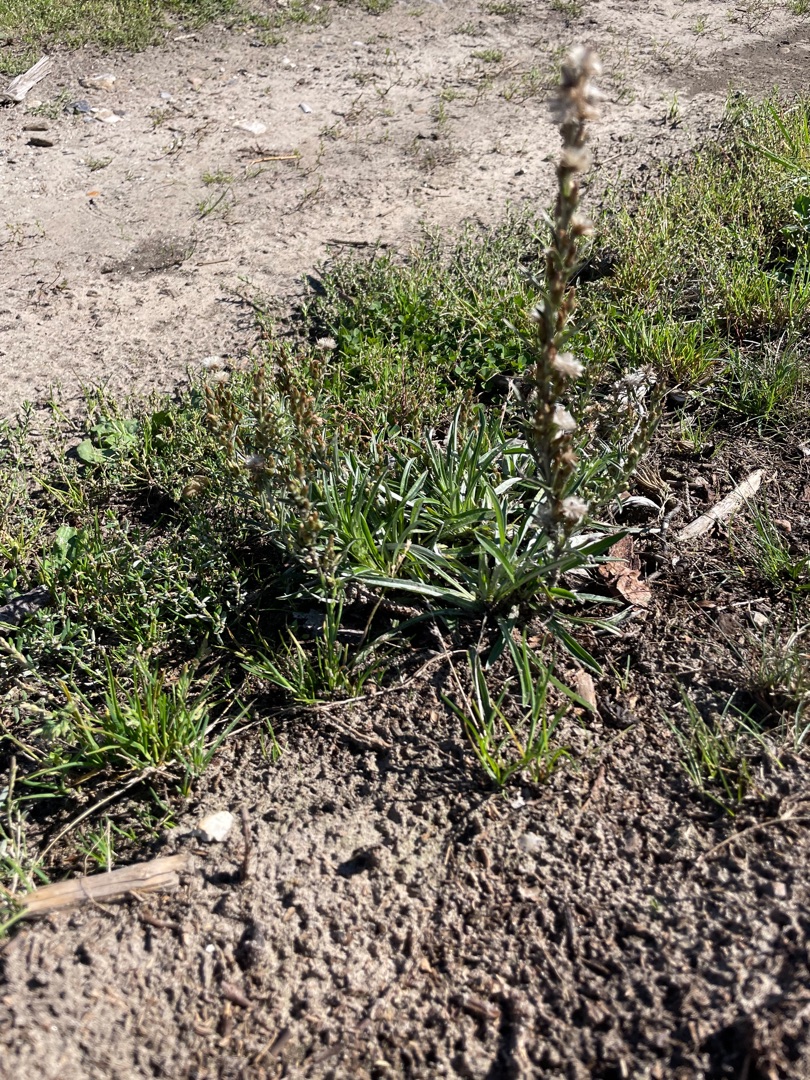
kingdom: Plantae
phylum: Tracheophyta
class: Magnoliopsida
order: Asterales
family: Asteraceae
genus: Omalotheca
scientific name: Omalotheca sylvatica
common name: Rank evighedsblomst
